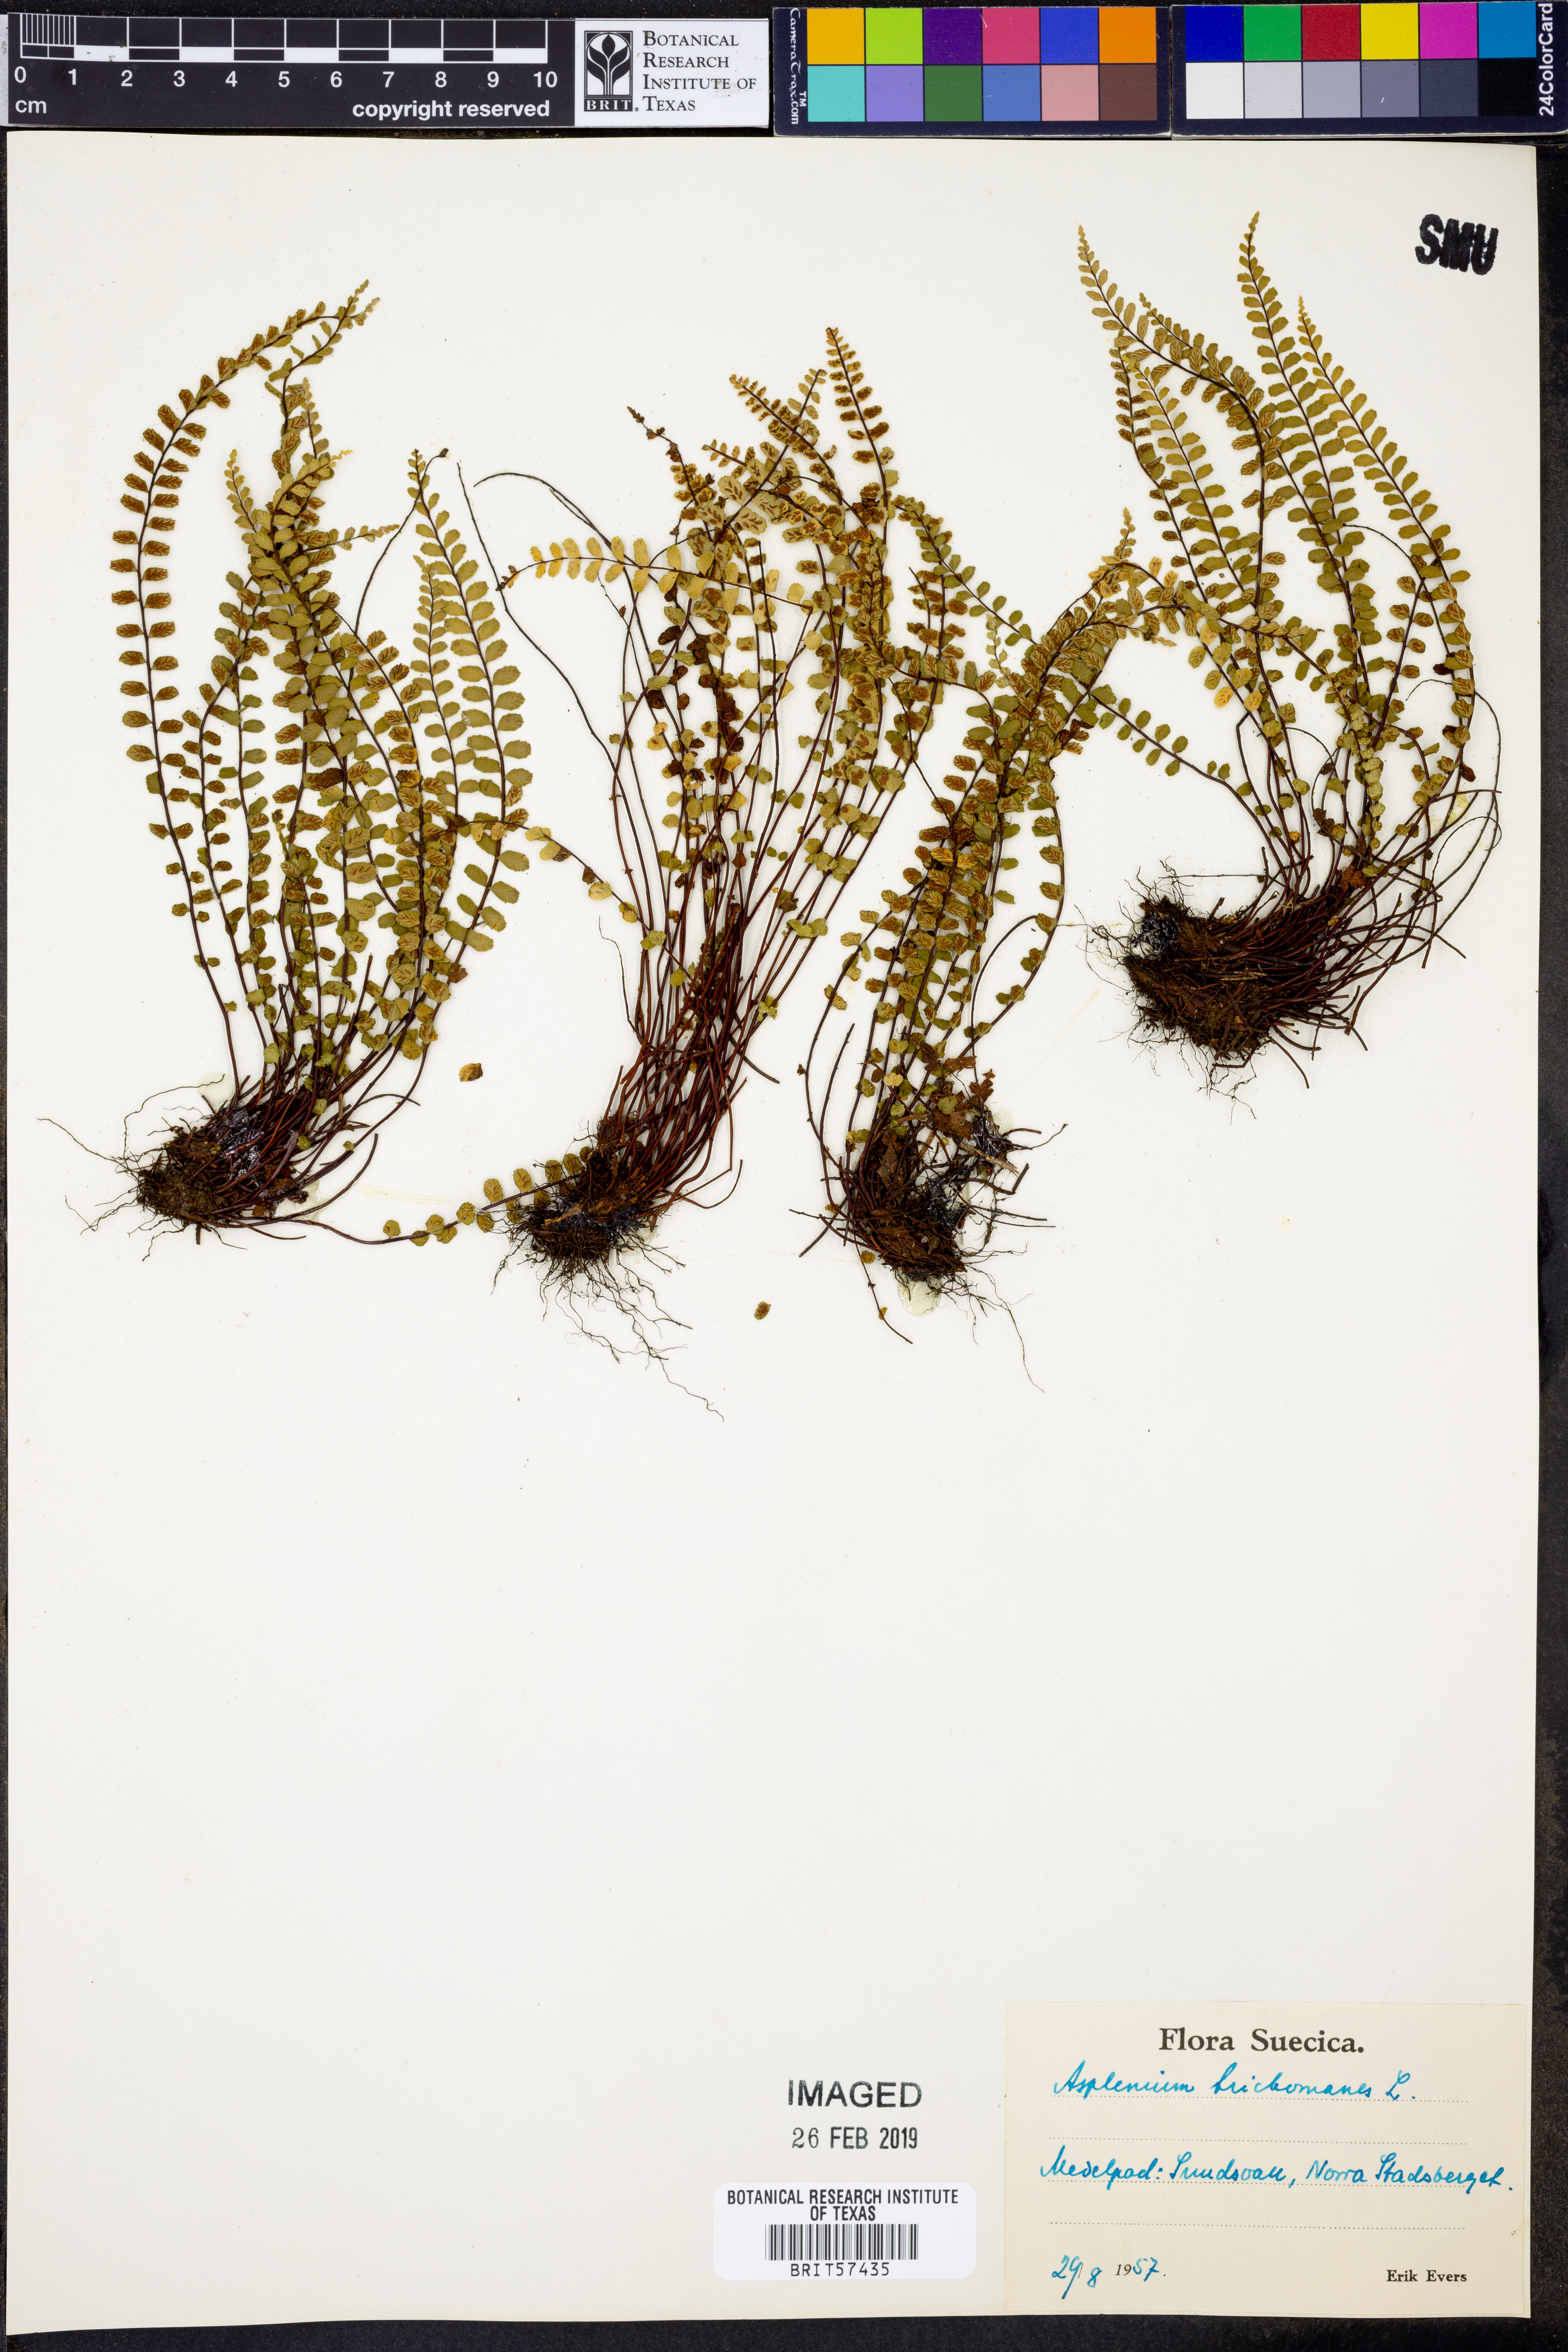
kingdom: Plantae
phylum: Tracheophyta
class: Polypodiopsida
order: Polypodiales
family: Aspleniaceae
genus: Asplenium
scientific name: Asplenium trichomanes
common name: Maidenhair spleenwort
